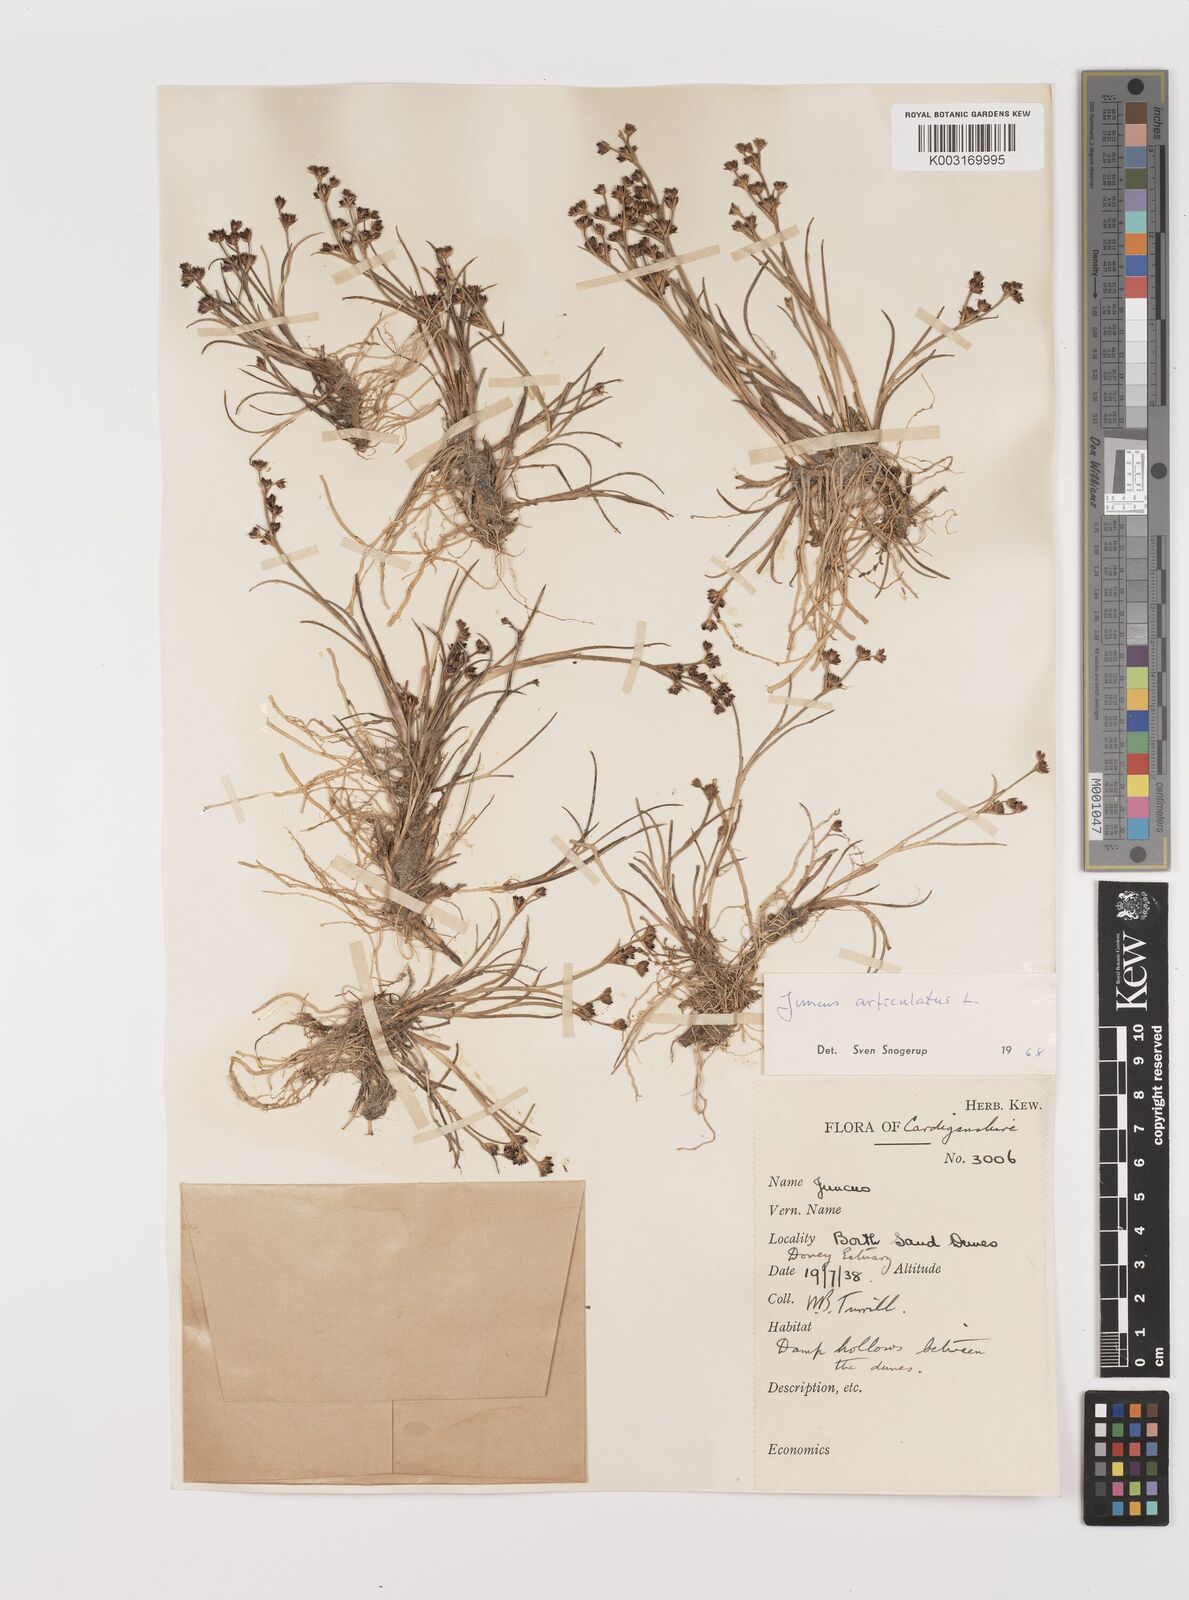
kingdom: Plantae
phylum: Tracheophyta
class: Liliopsida
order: Poales
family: Juncaceae
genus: Juncus
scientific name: Juncus articulatus
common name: Jointed rush
